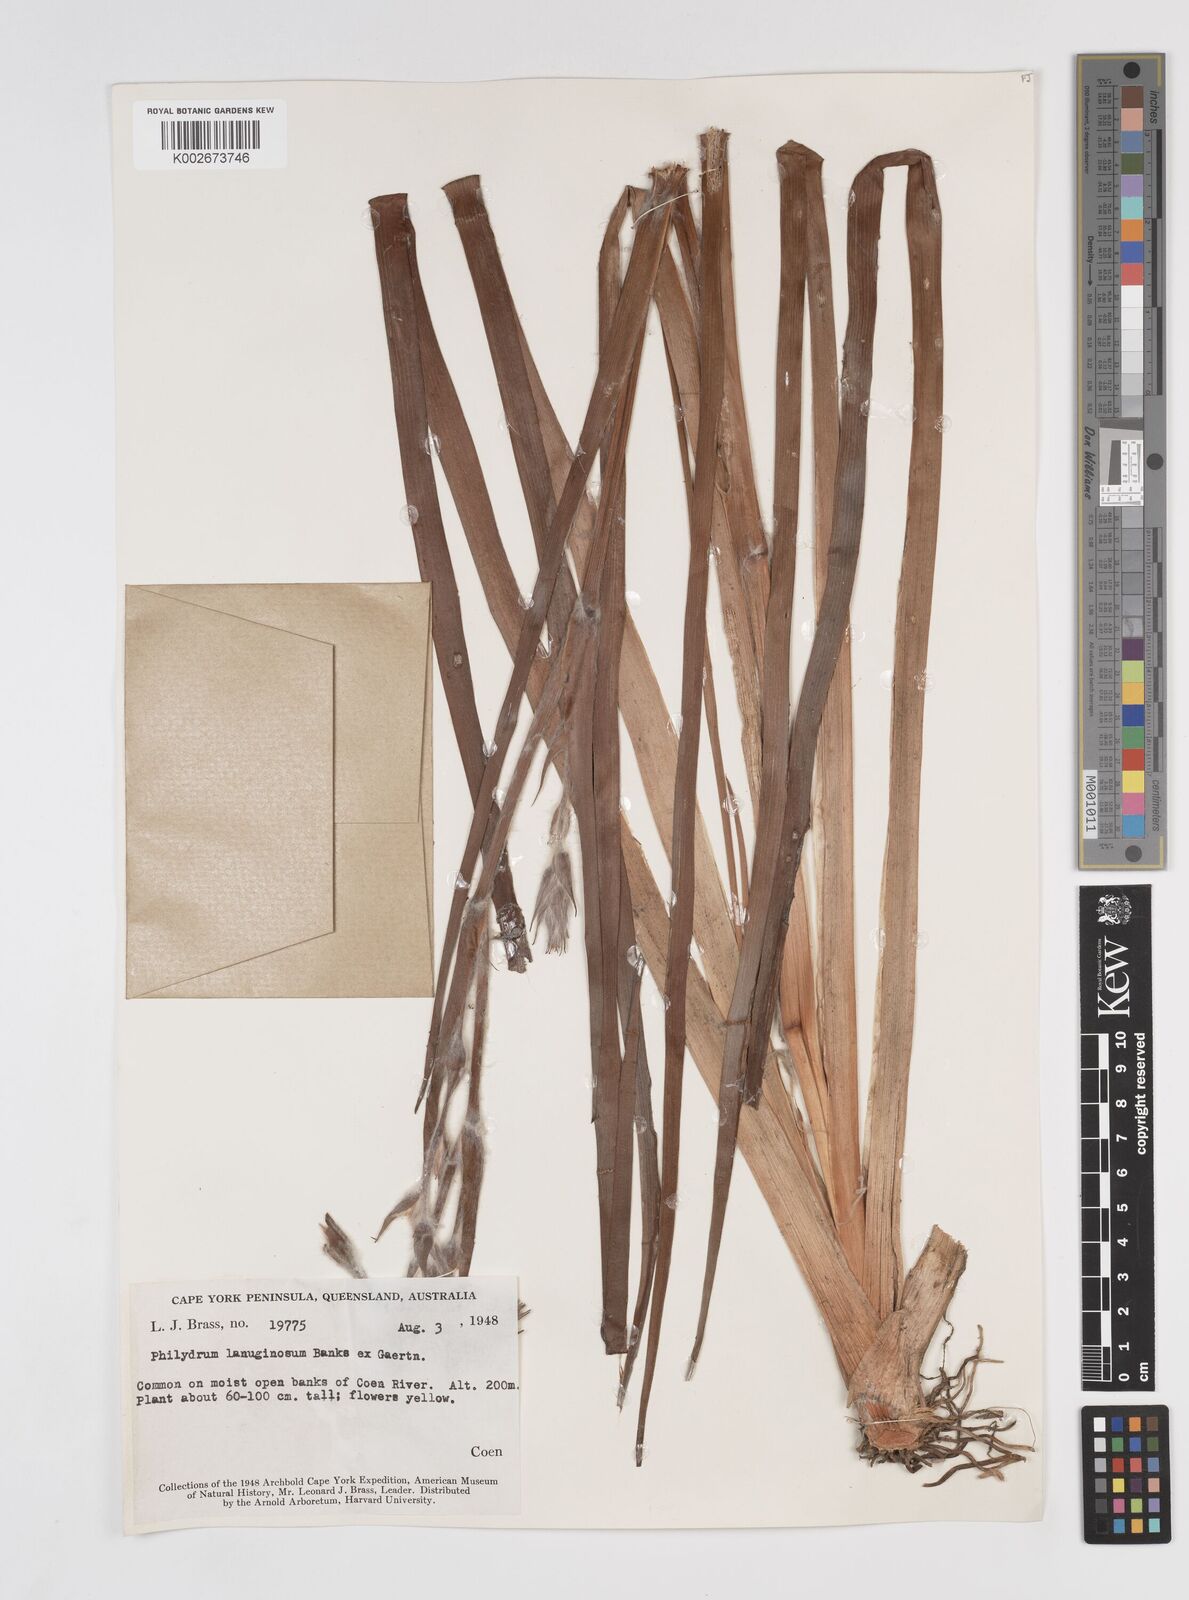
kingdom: Plantae
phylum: Tracheophyta
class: Liliopsida
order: Commelinales
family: Philydraceae
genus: Philydrum
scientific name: Philydrum lanuginosum
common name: Woolly frog's mouth
